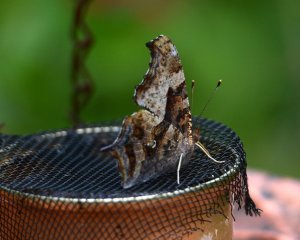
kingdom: Animalia
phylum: Arthropoda
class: Insecta
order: Lepidoptera
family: Nymphalidae
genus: Polygonia
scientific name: Polygonia interrogationis
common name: Question Mark
